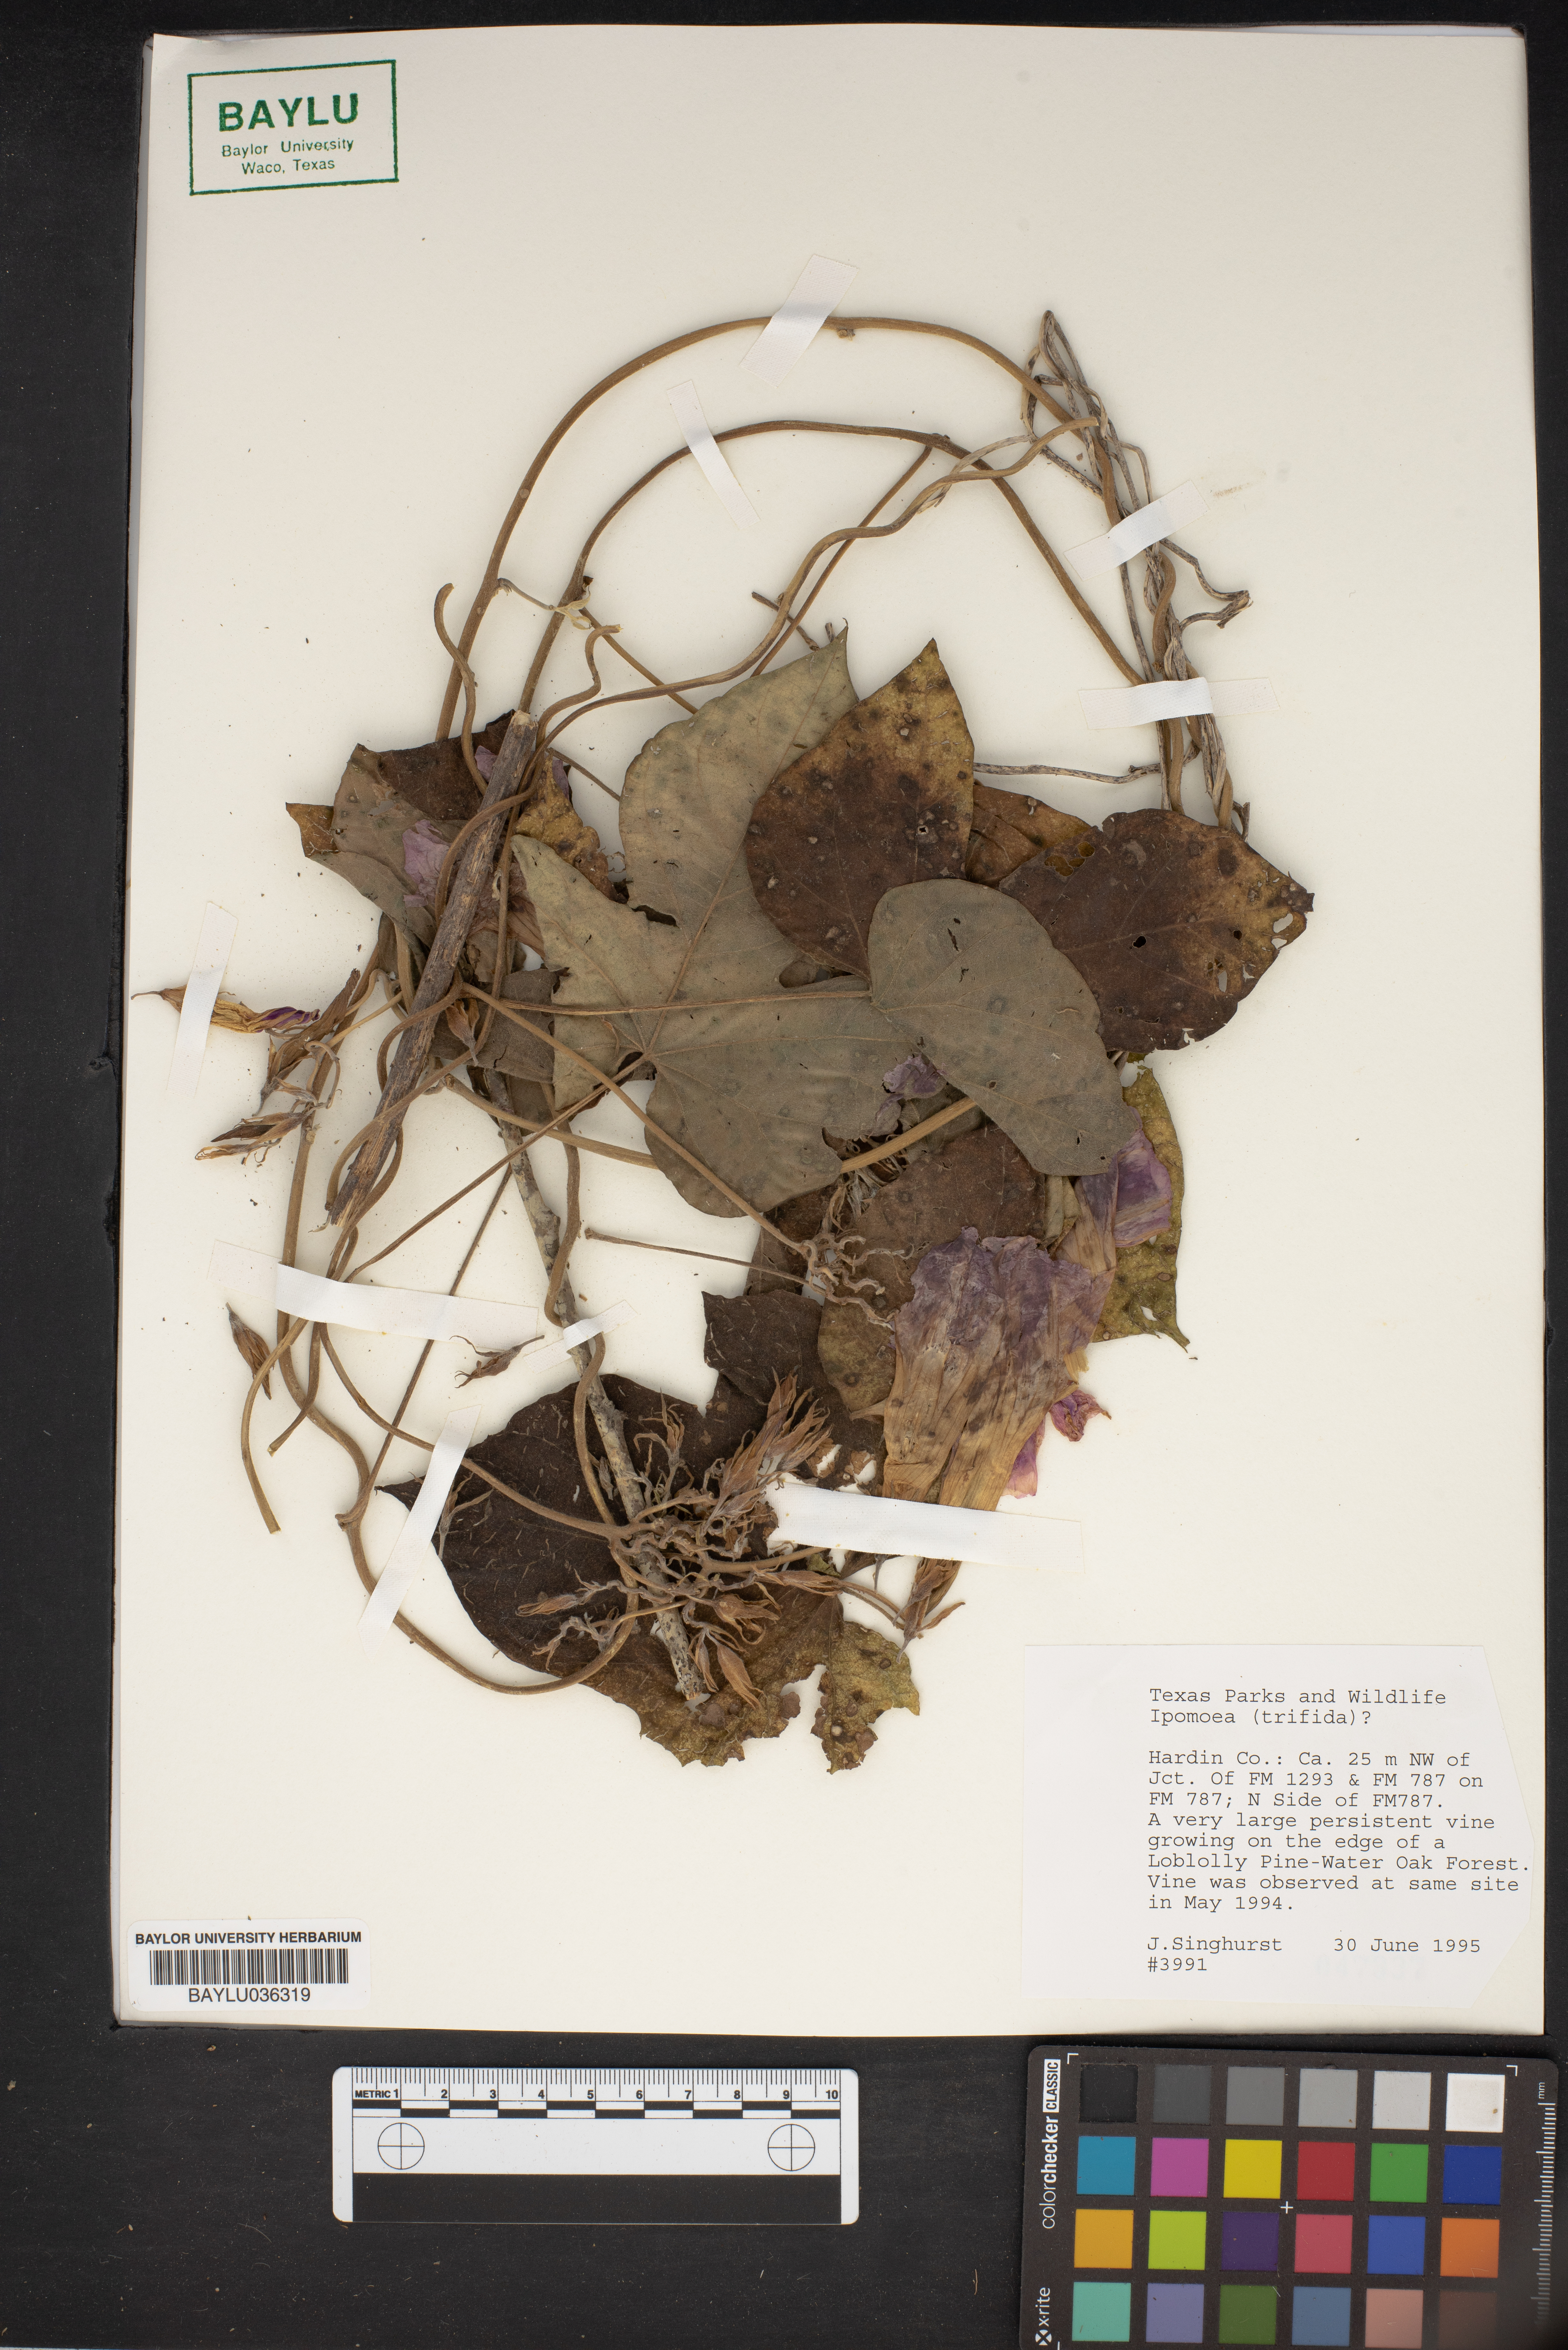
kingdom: Plantae
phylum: Tracheophyta
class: Magnoliopsida
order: Solanales
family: Convolvulaceae
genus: Ipomoea
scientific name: Ipomoea trifida
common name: Cotton morningglory
